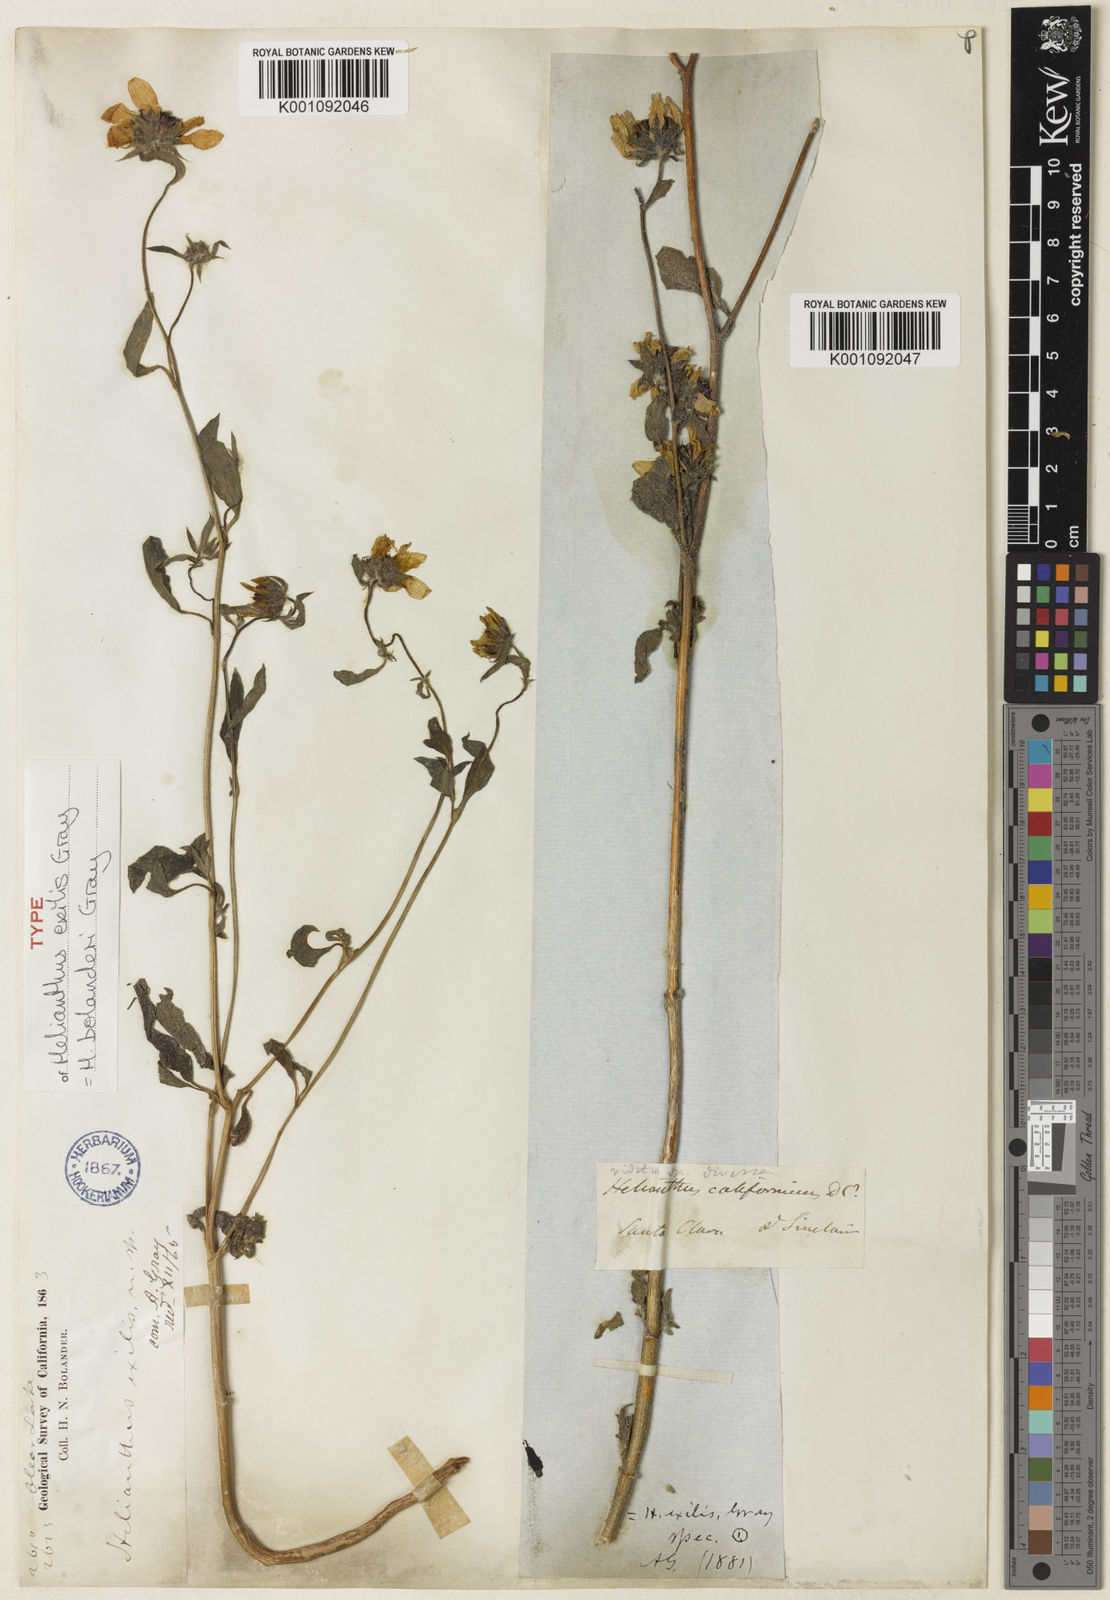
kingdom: Plantae
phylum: Tracheophyta
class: Magnoliopsida
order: Asterales
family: Asteraceae
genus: Helianthus
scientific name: Helianthus bolanderi
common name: Bolander's sunflower
